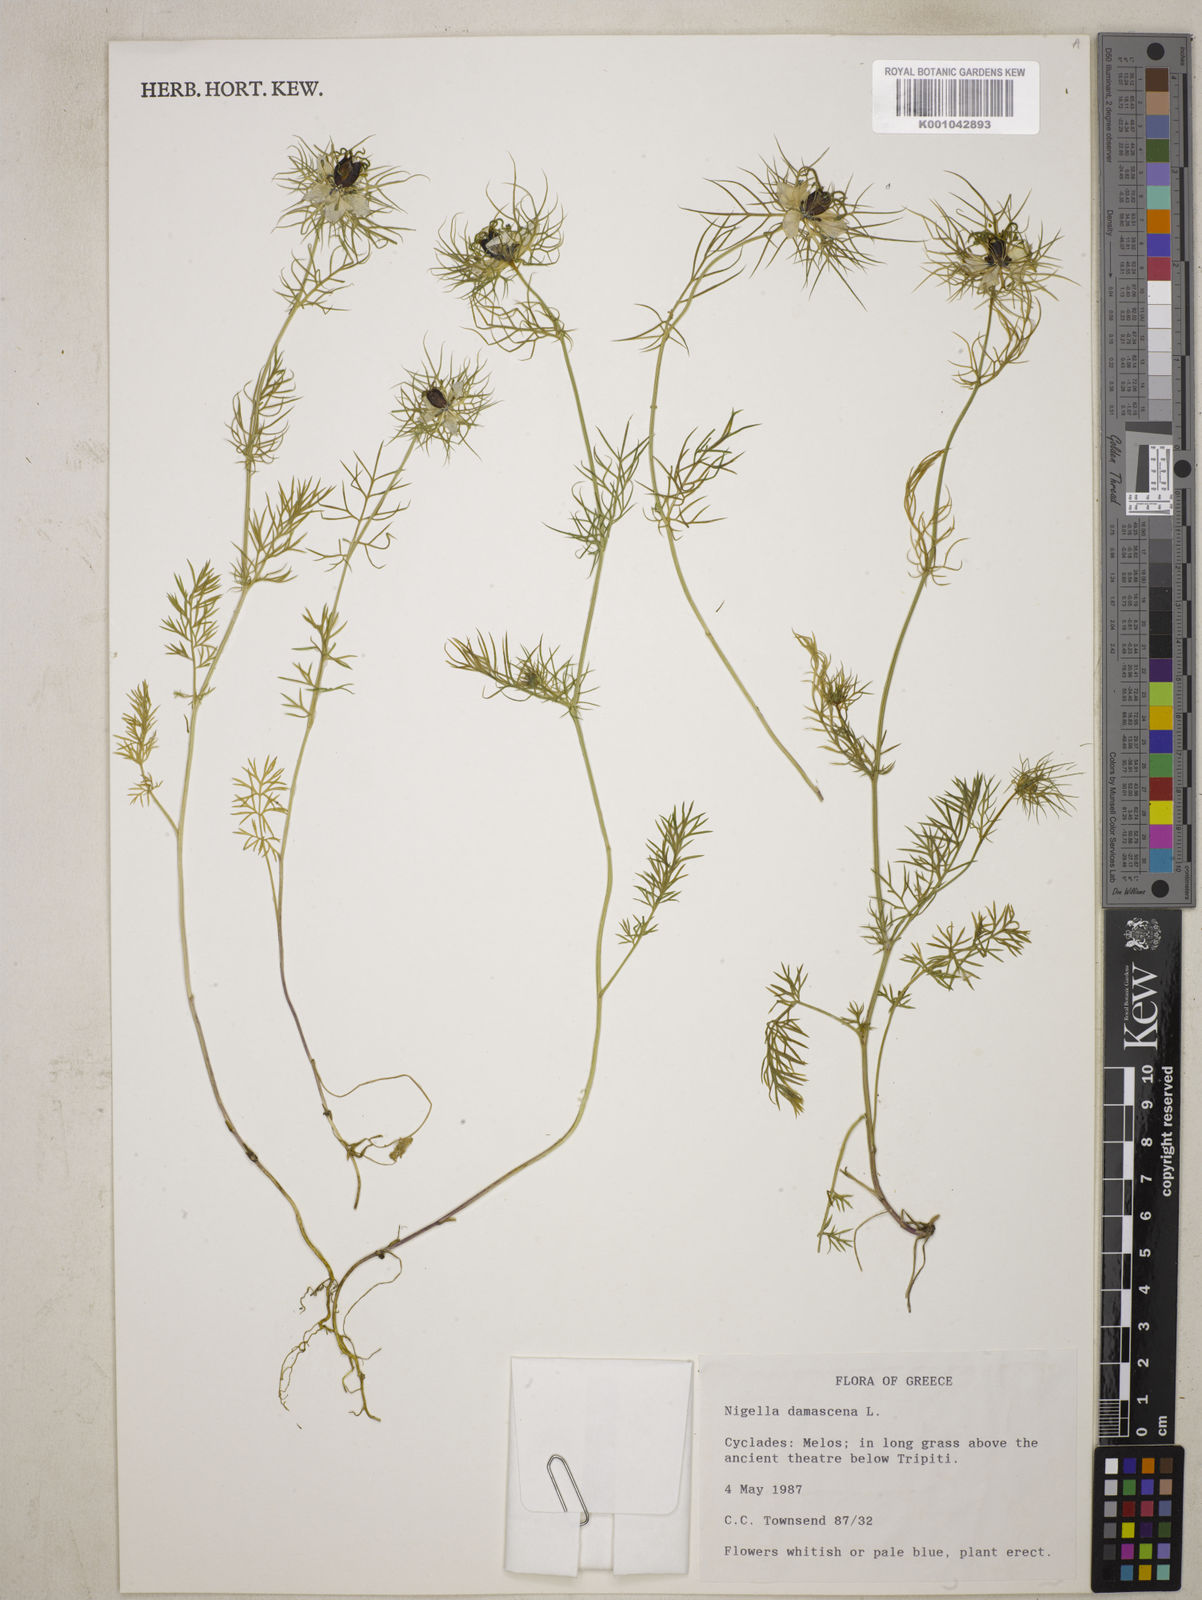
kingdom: Plantae
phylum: Tracheophyta
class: Magnoliopsida
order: Ranunculales
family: Ranunculaceae
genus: Nigella
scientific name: Nigella damascena
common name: Love-in-a-mist
